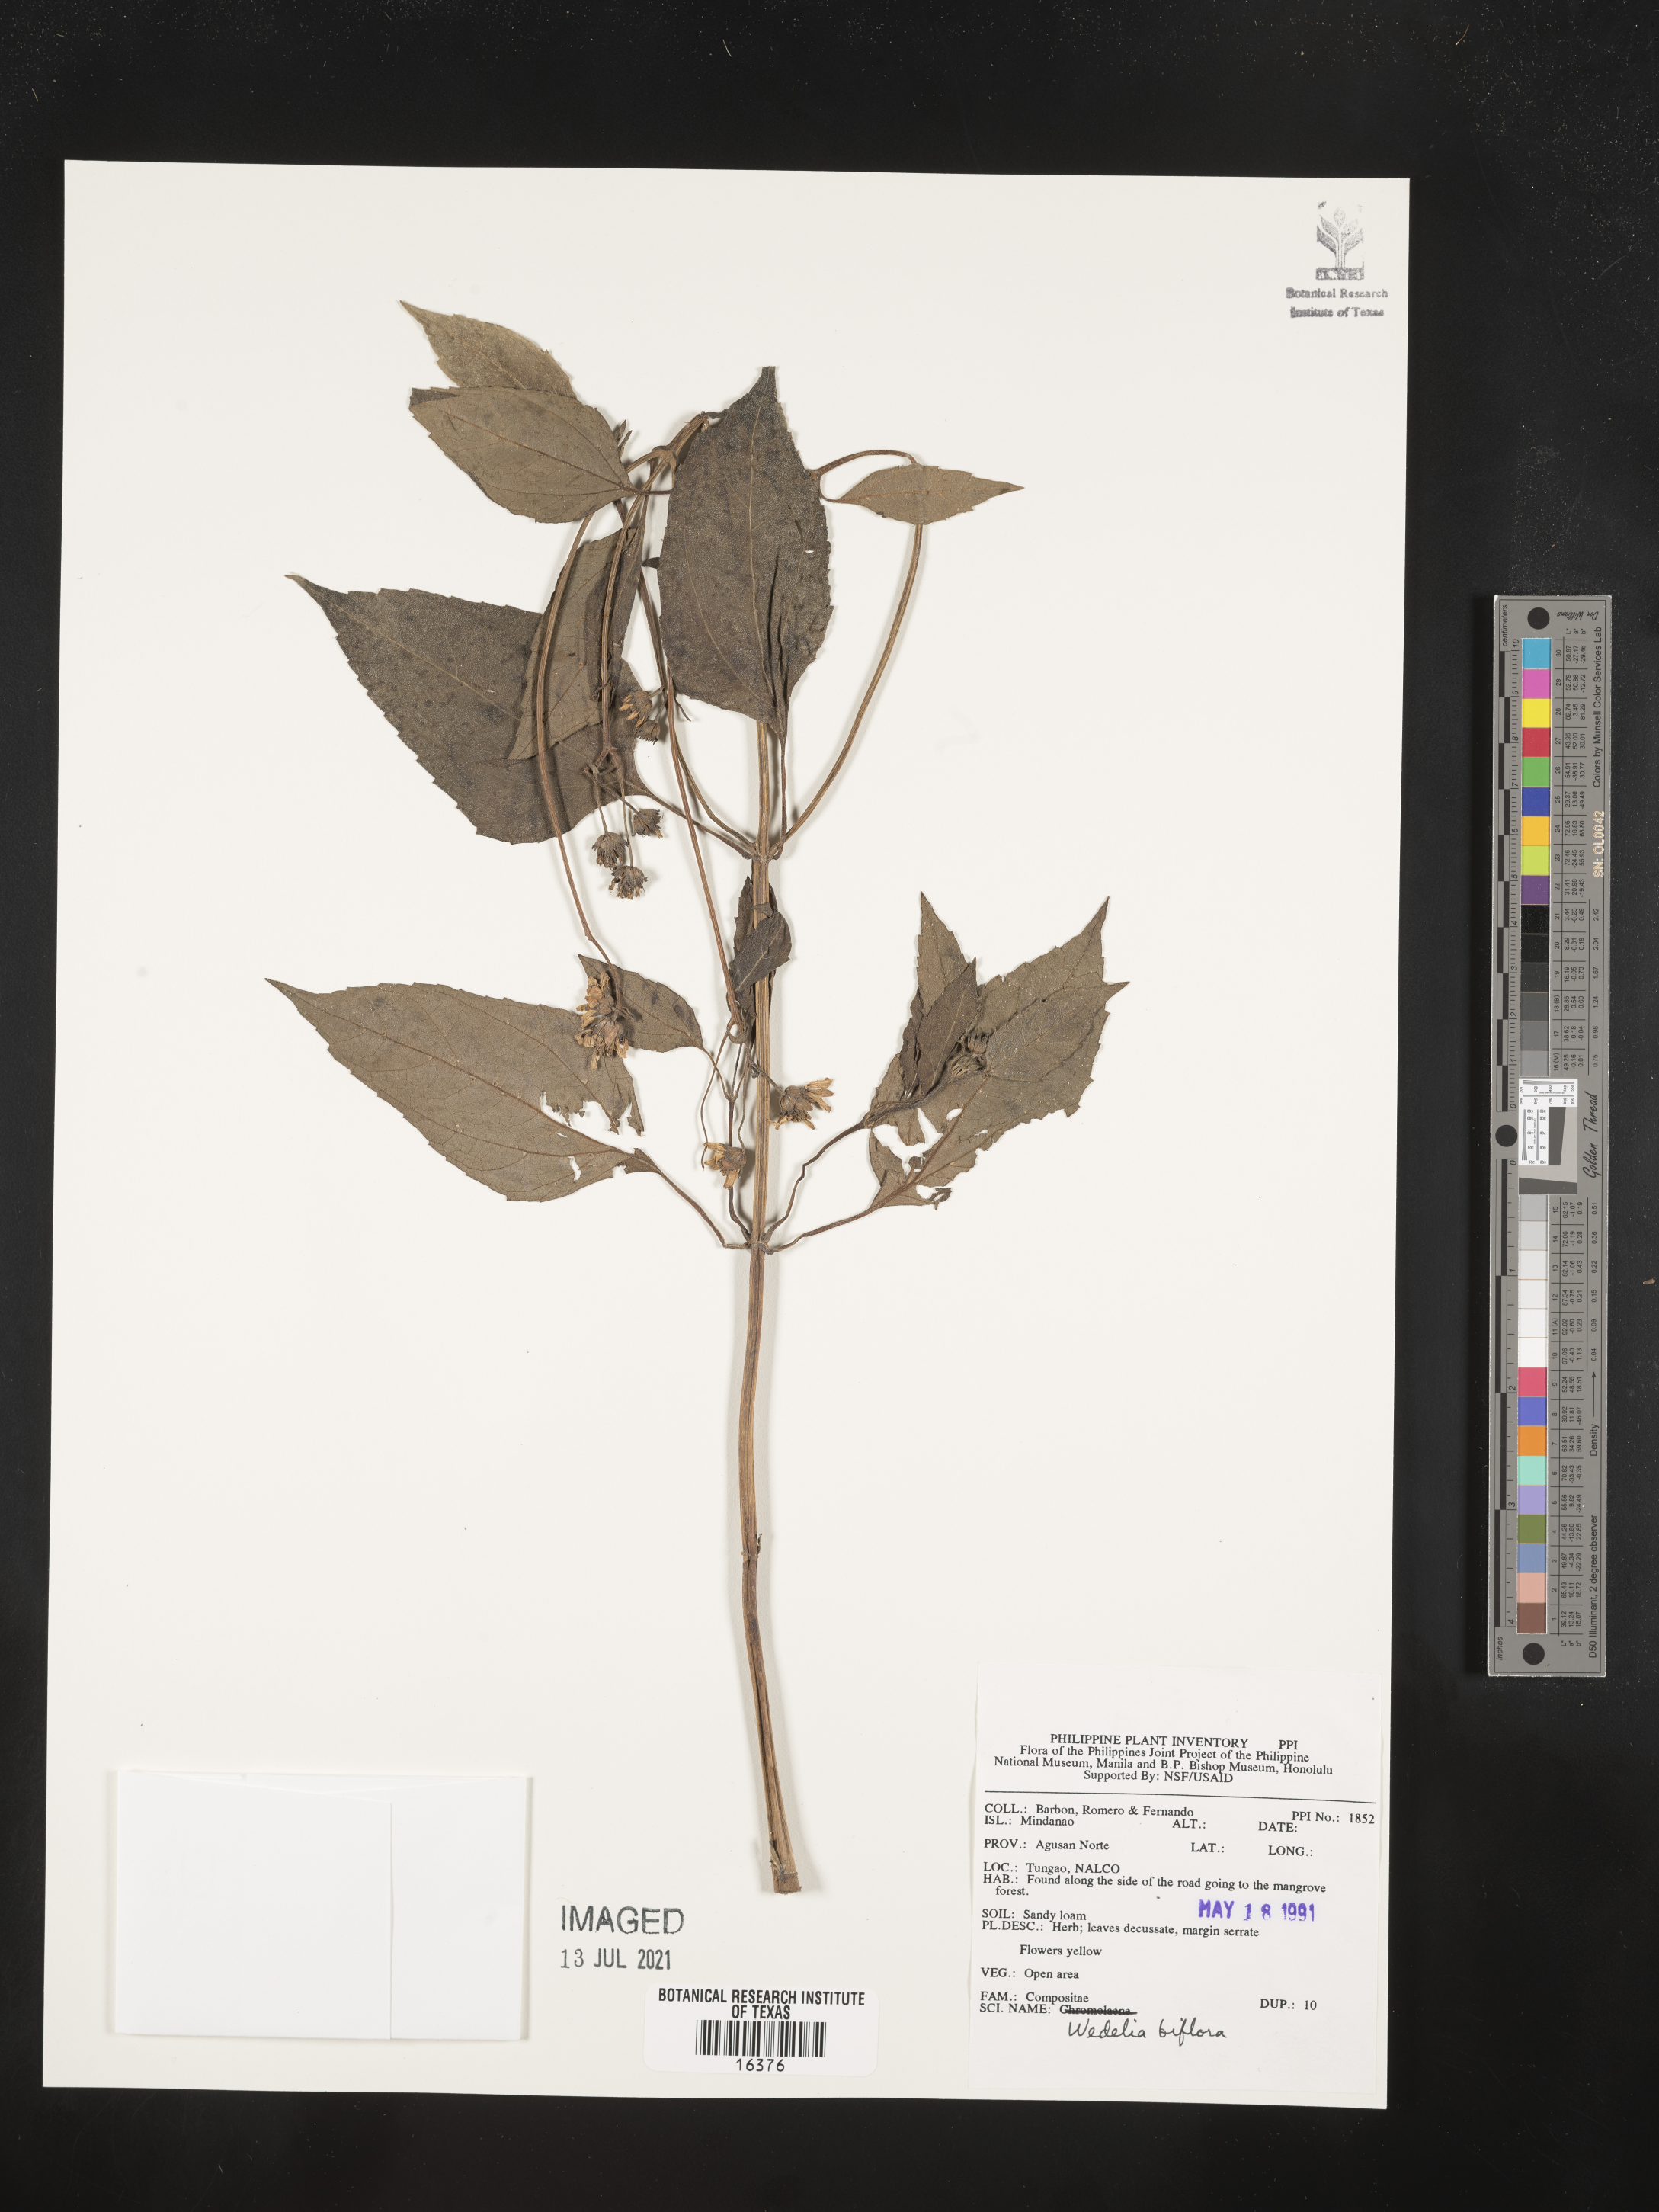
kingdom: Plantae
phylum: Tracheophyta
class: Magnoliopsida
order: Asterales
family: Asteraceae
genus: Wollastonia
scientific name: Wollastonia biflora
